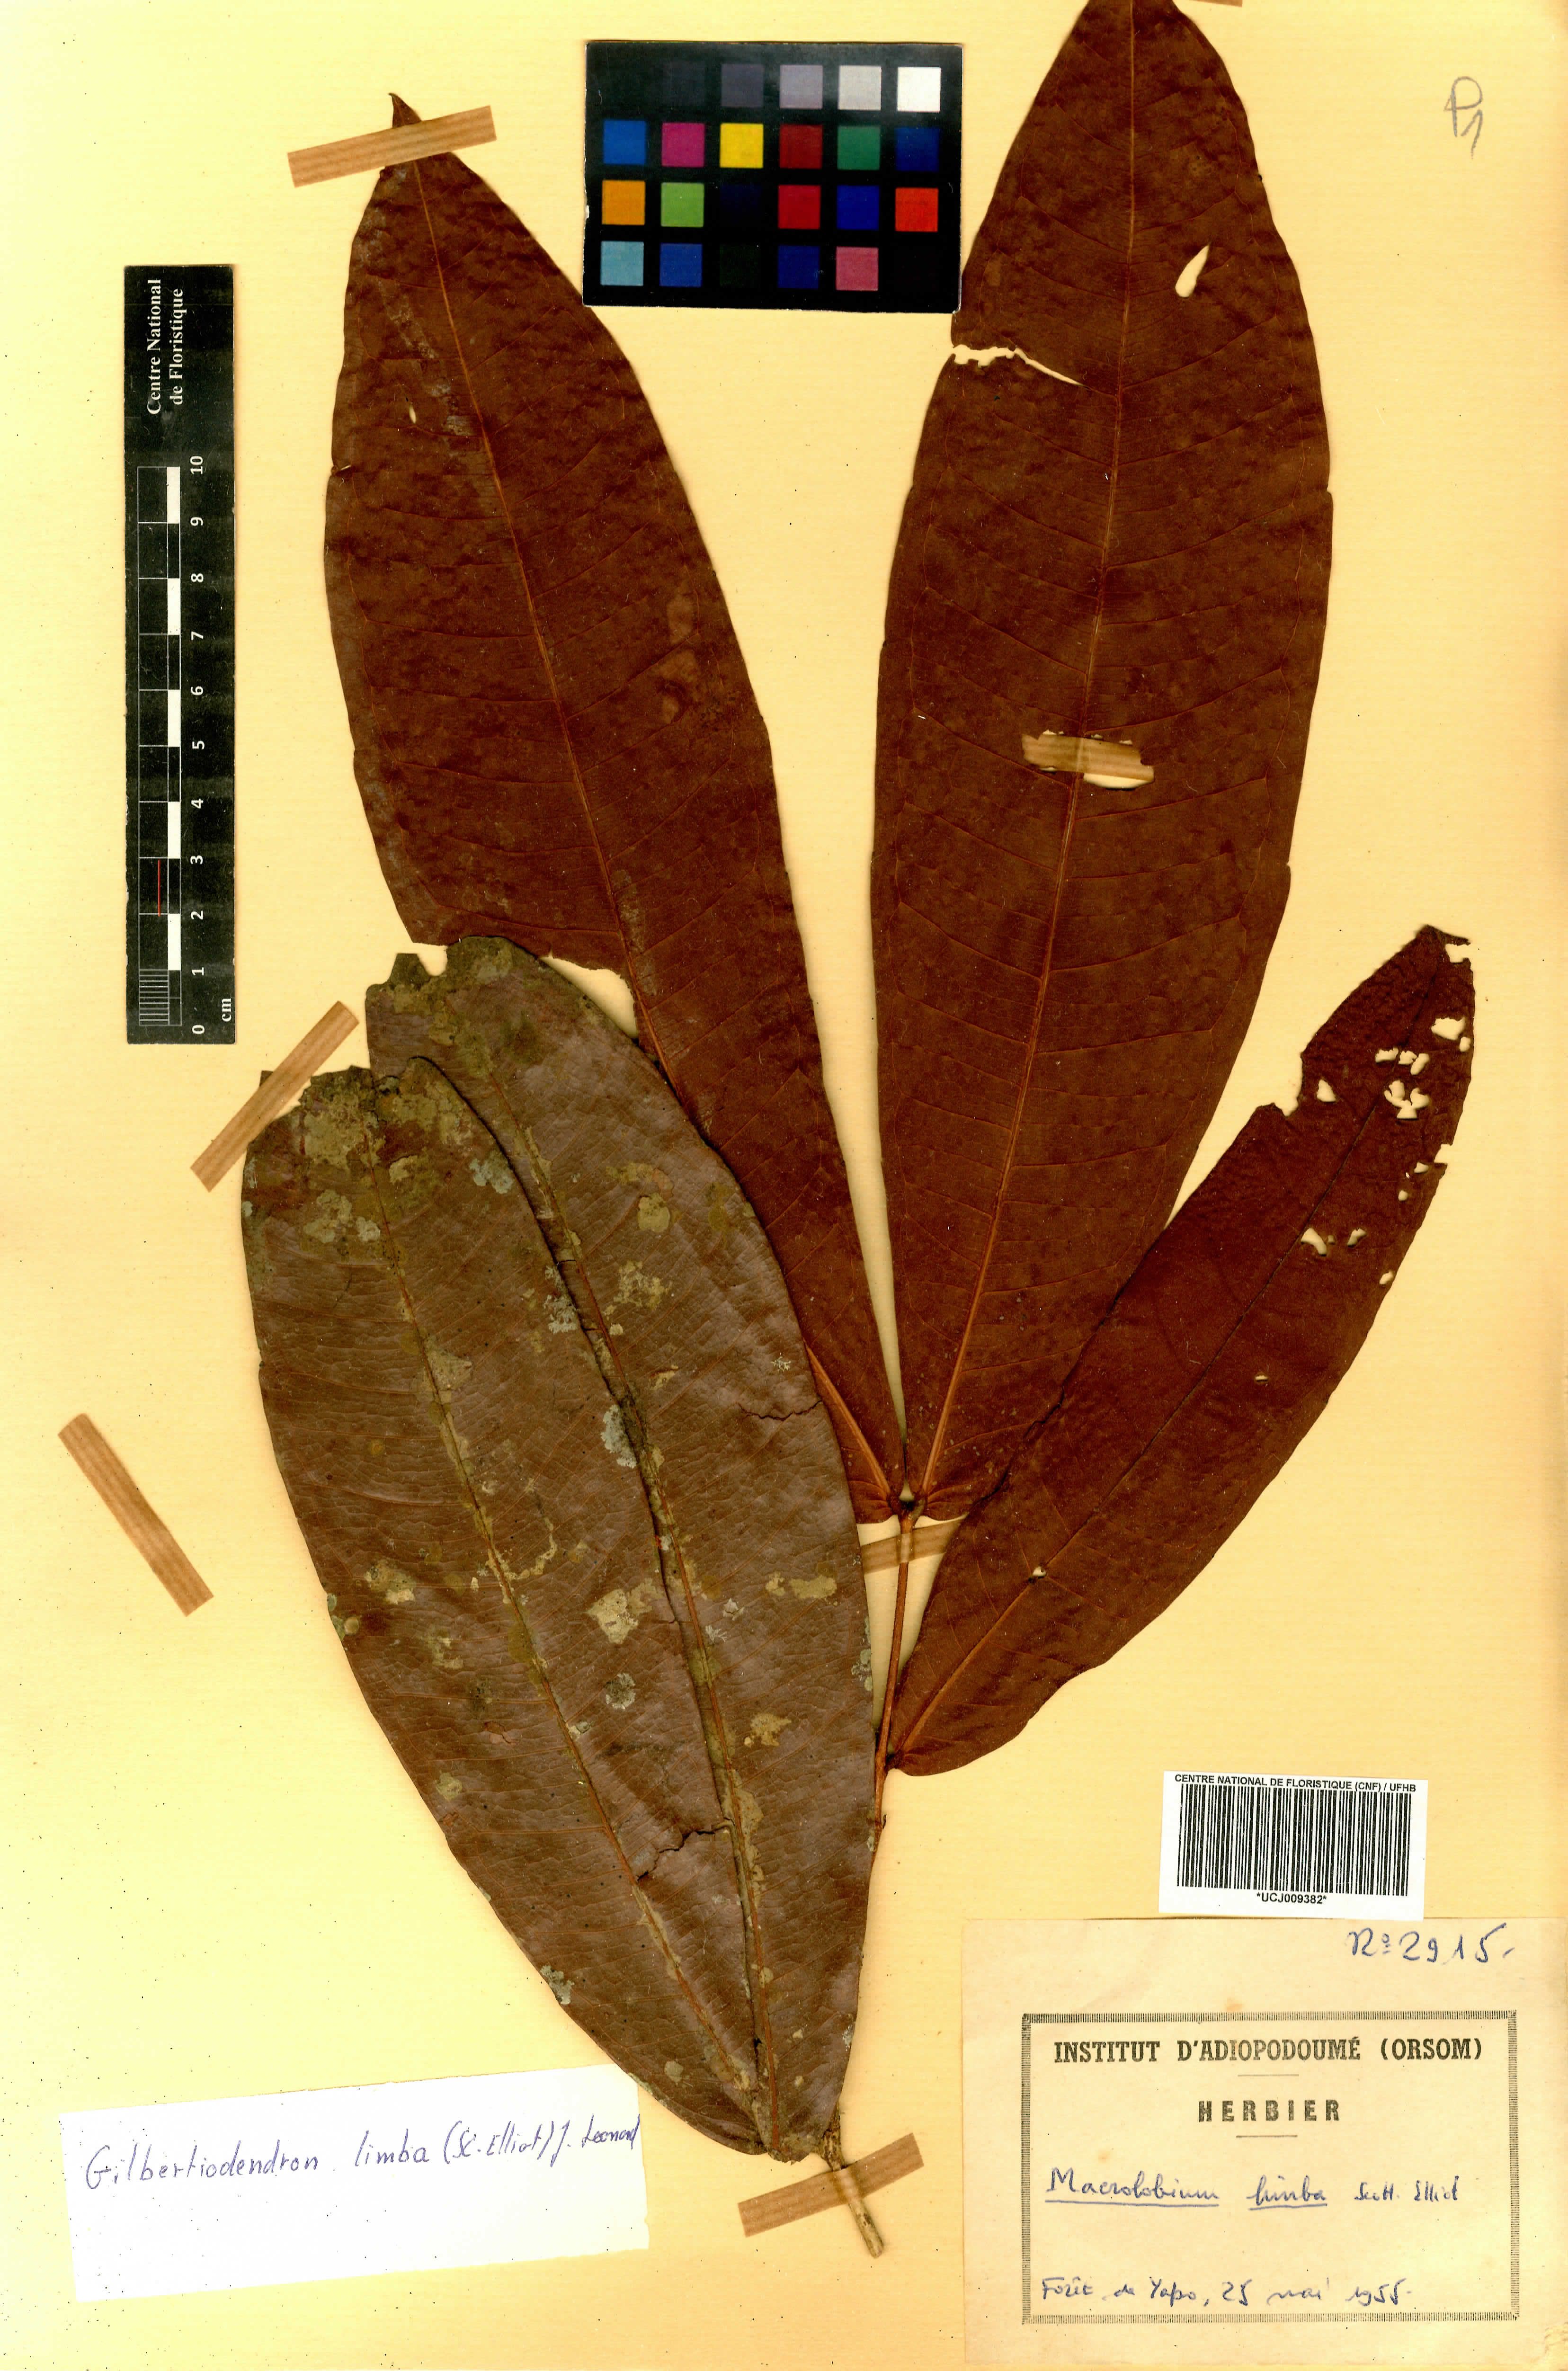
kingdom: Plantae
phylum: Tracheophyta
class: Magnoliopsida
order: Fabales
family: Fabaceae
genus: Gilbertiodendron
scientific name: Gilbertiodendron limba
